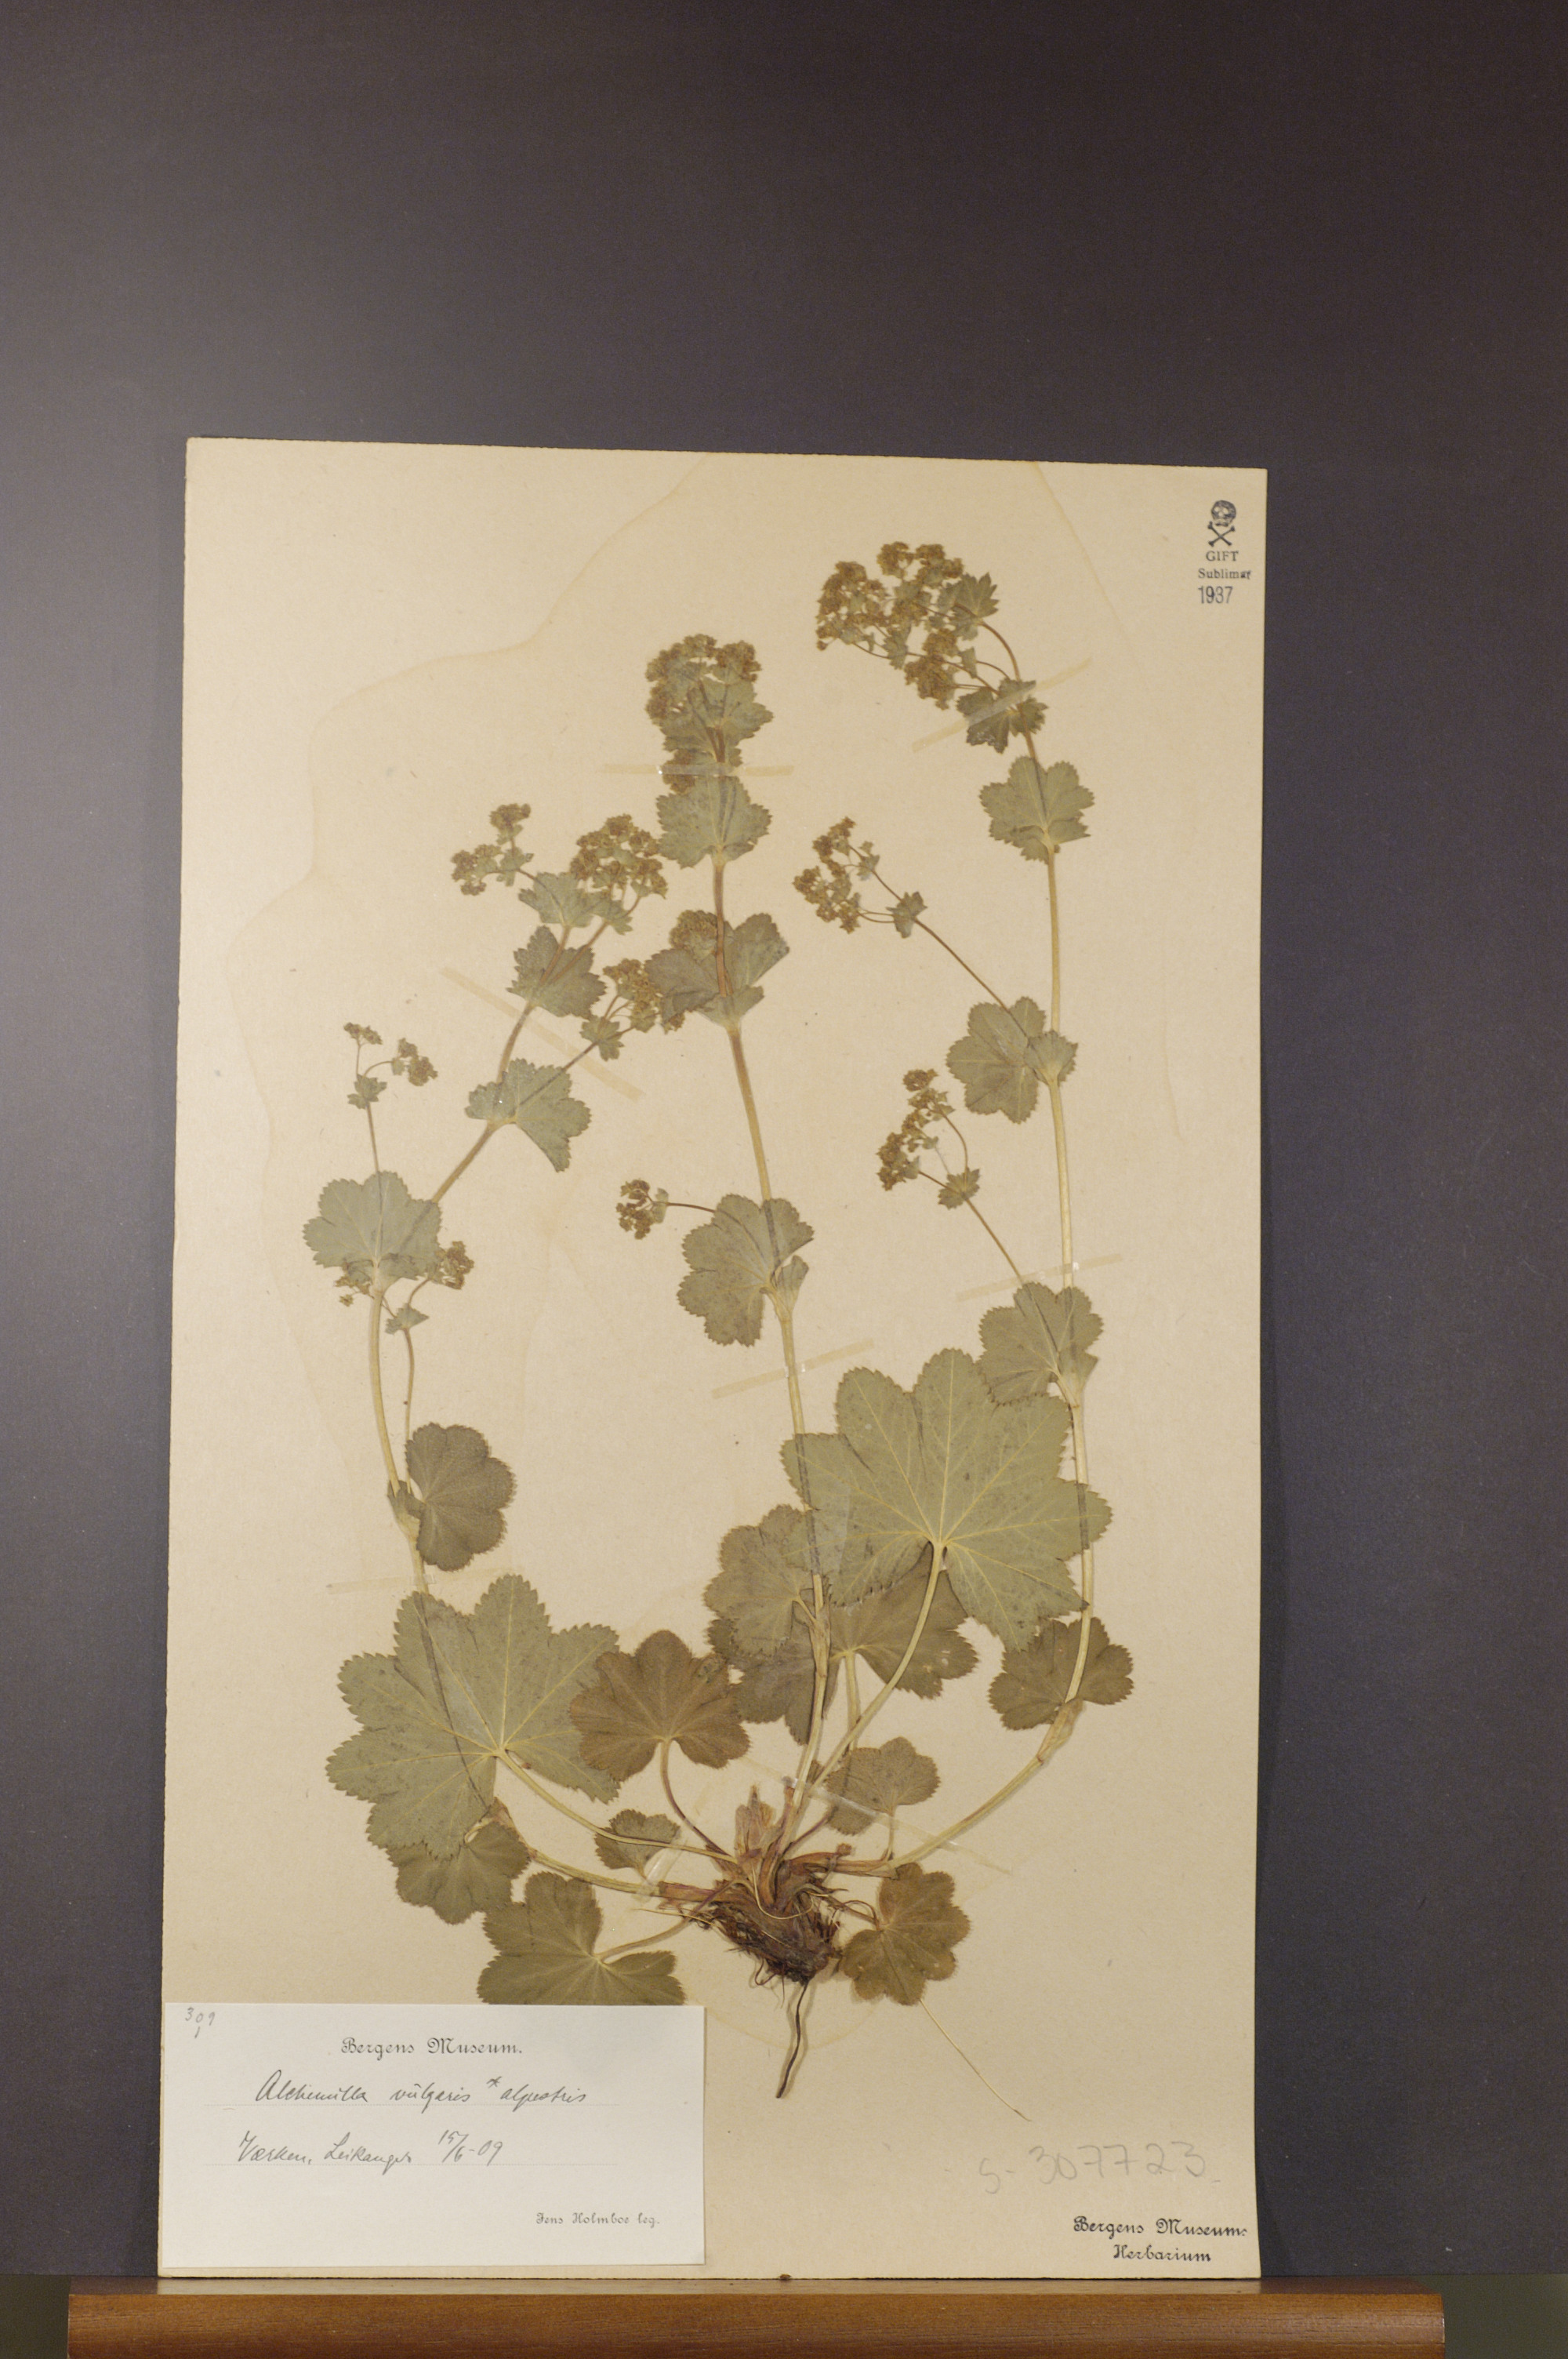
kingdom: Plantae
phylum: Tracheophyta
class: Magnoliopsida
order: Rosales
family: Rosaceae
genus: Alchemilla
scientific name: Alchemilla glabra
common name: Smooth lady's-mantle
